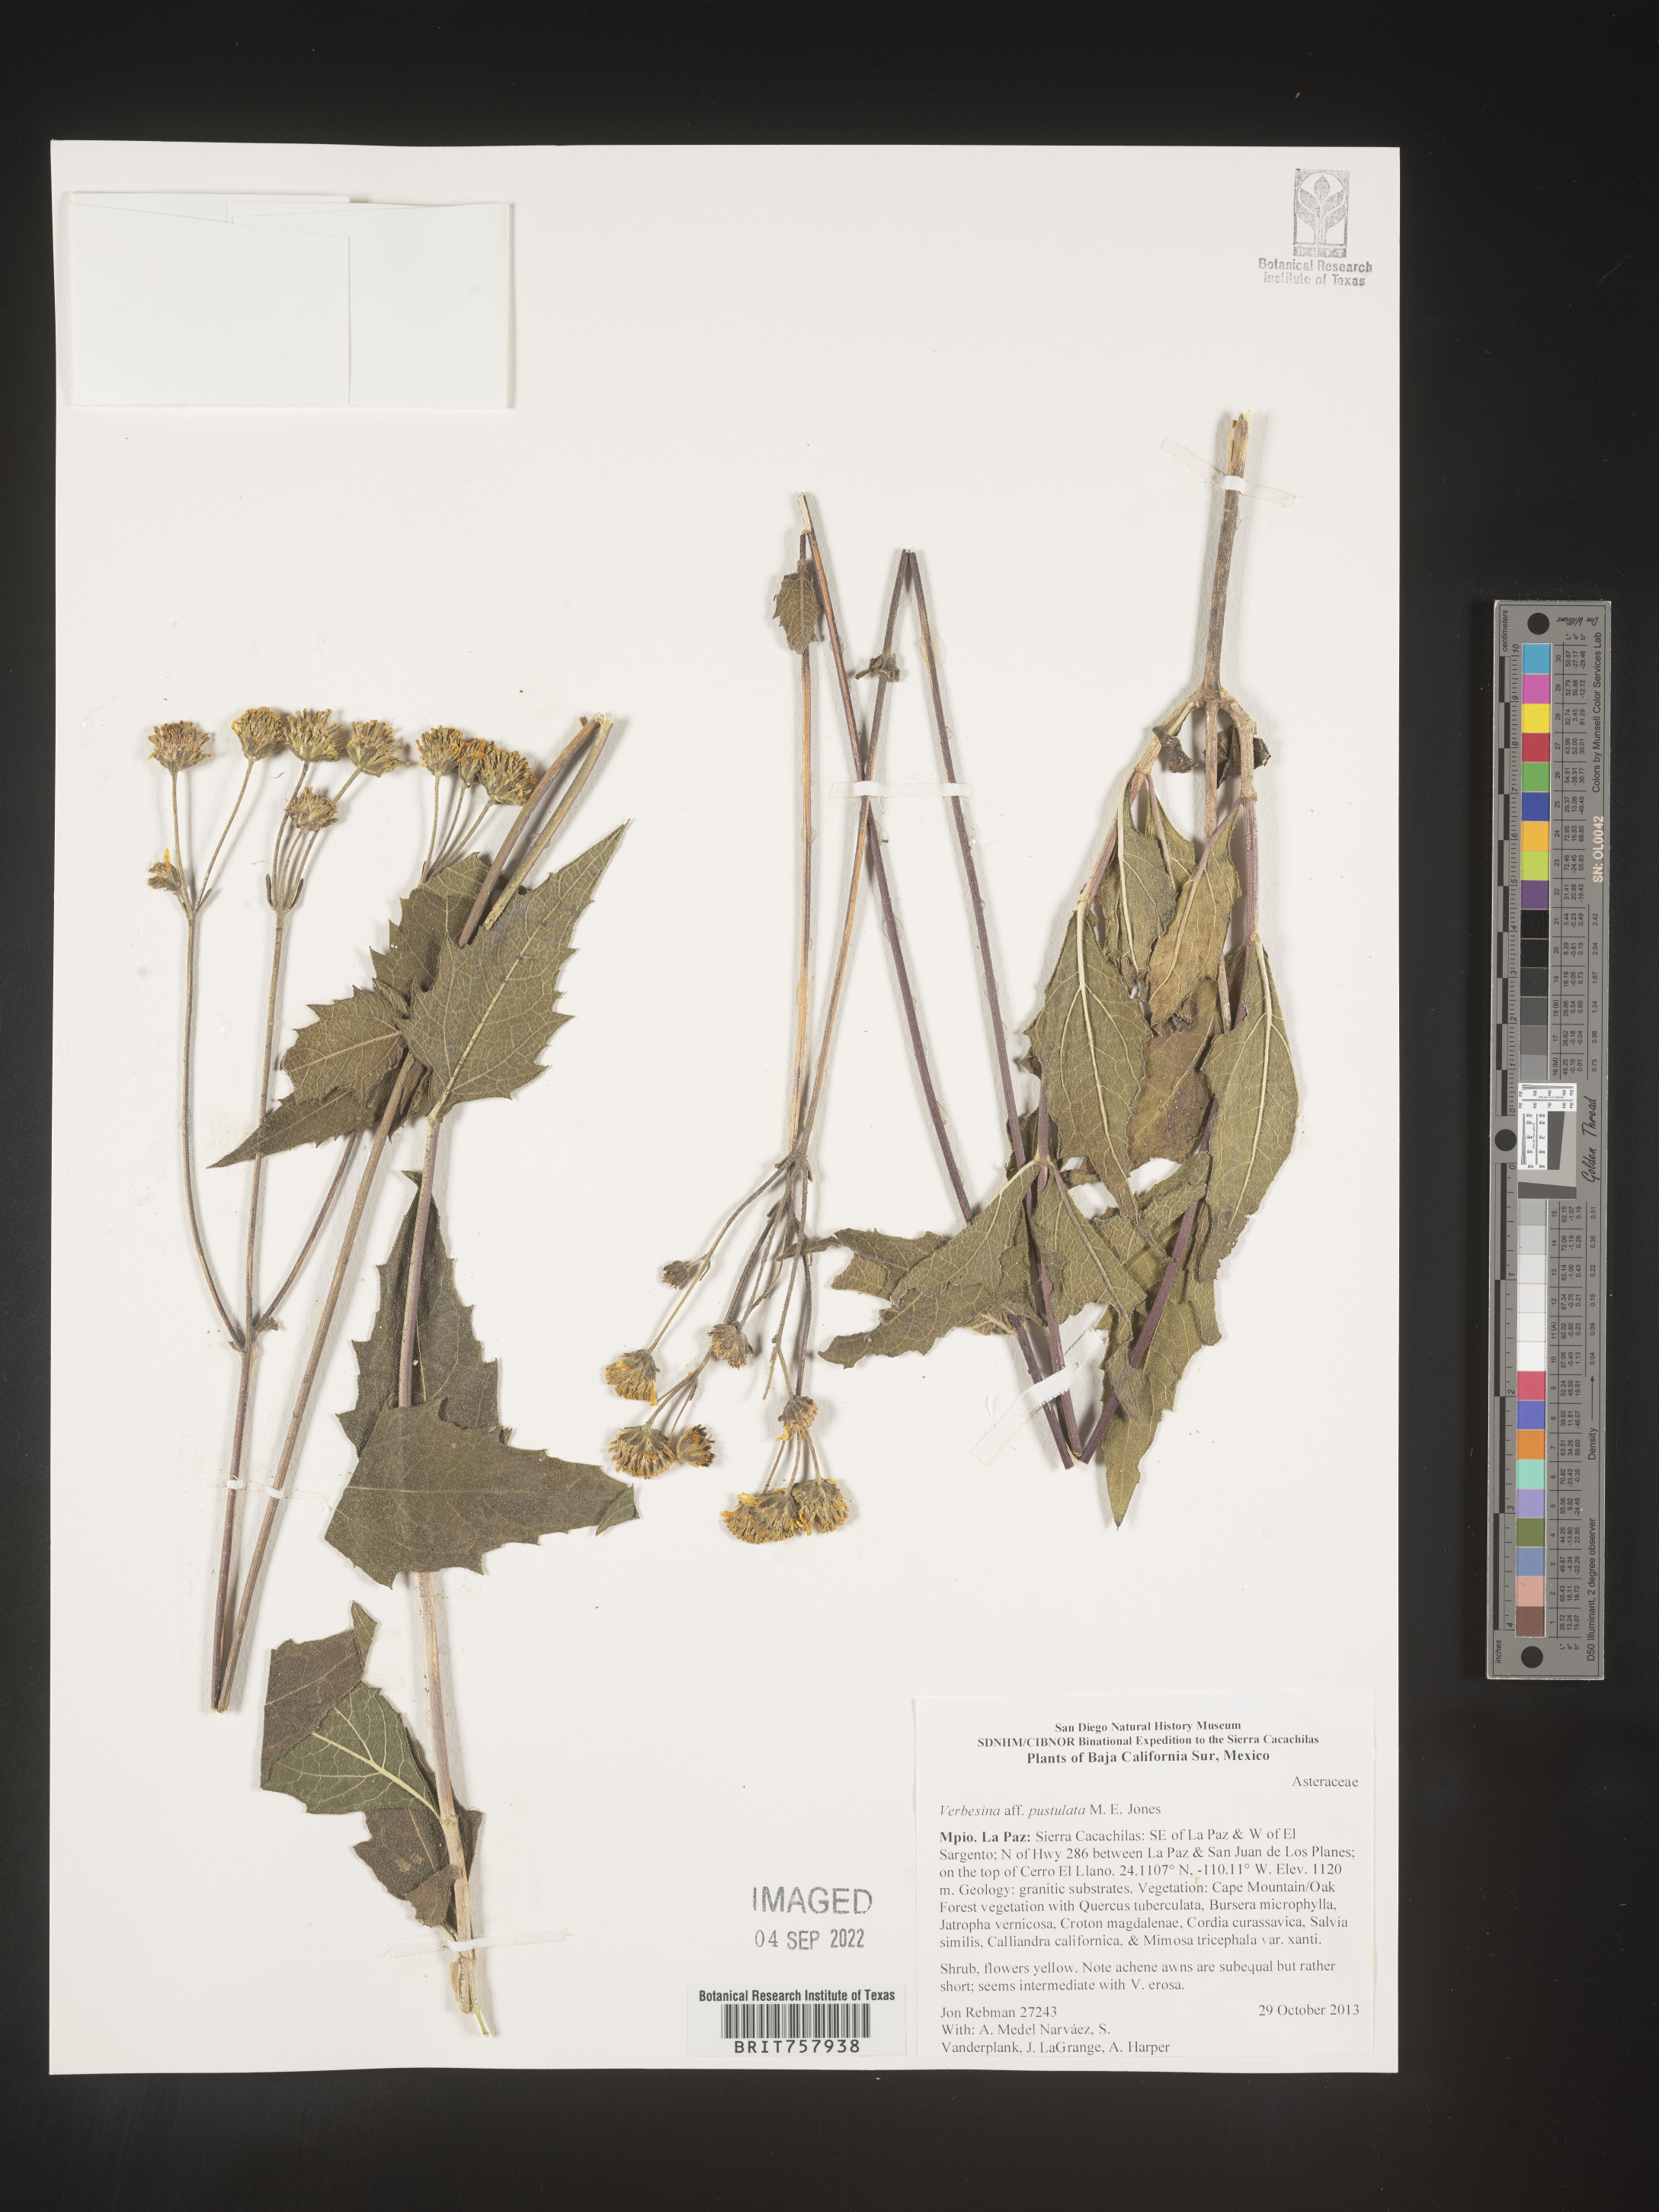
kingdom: Plantae
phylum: Tracheophyta
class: Magnoliopsida
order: Asterales
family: Asteraceae
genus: Verbesina
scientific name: Verbesina
